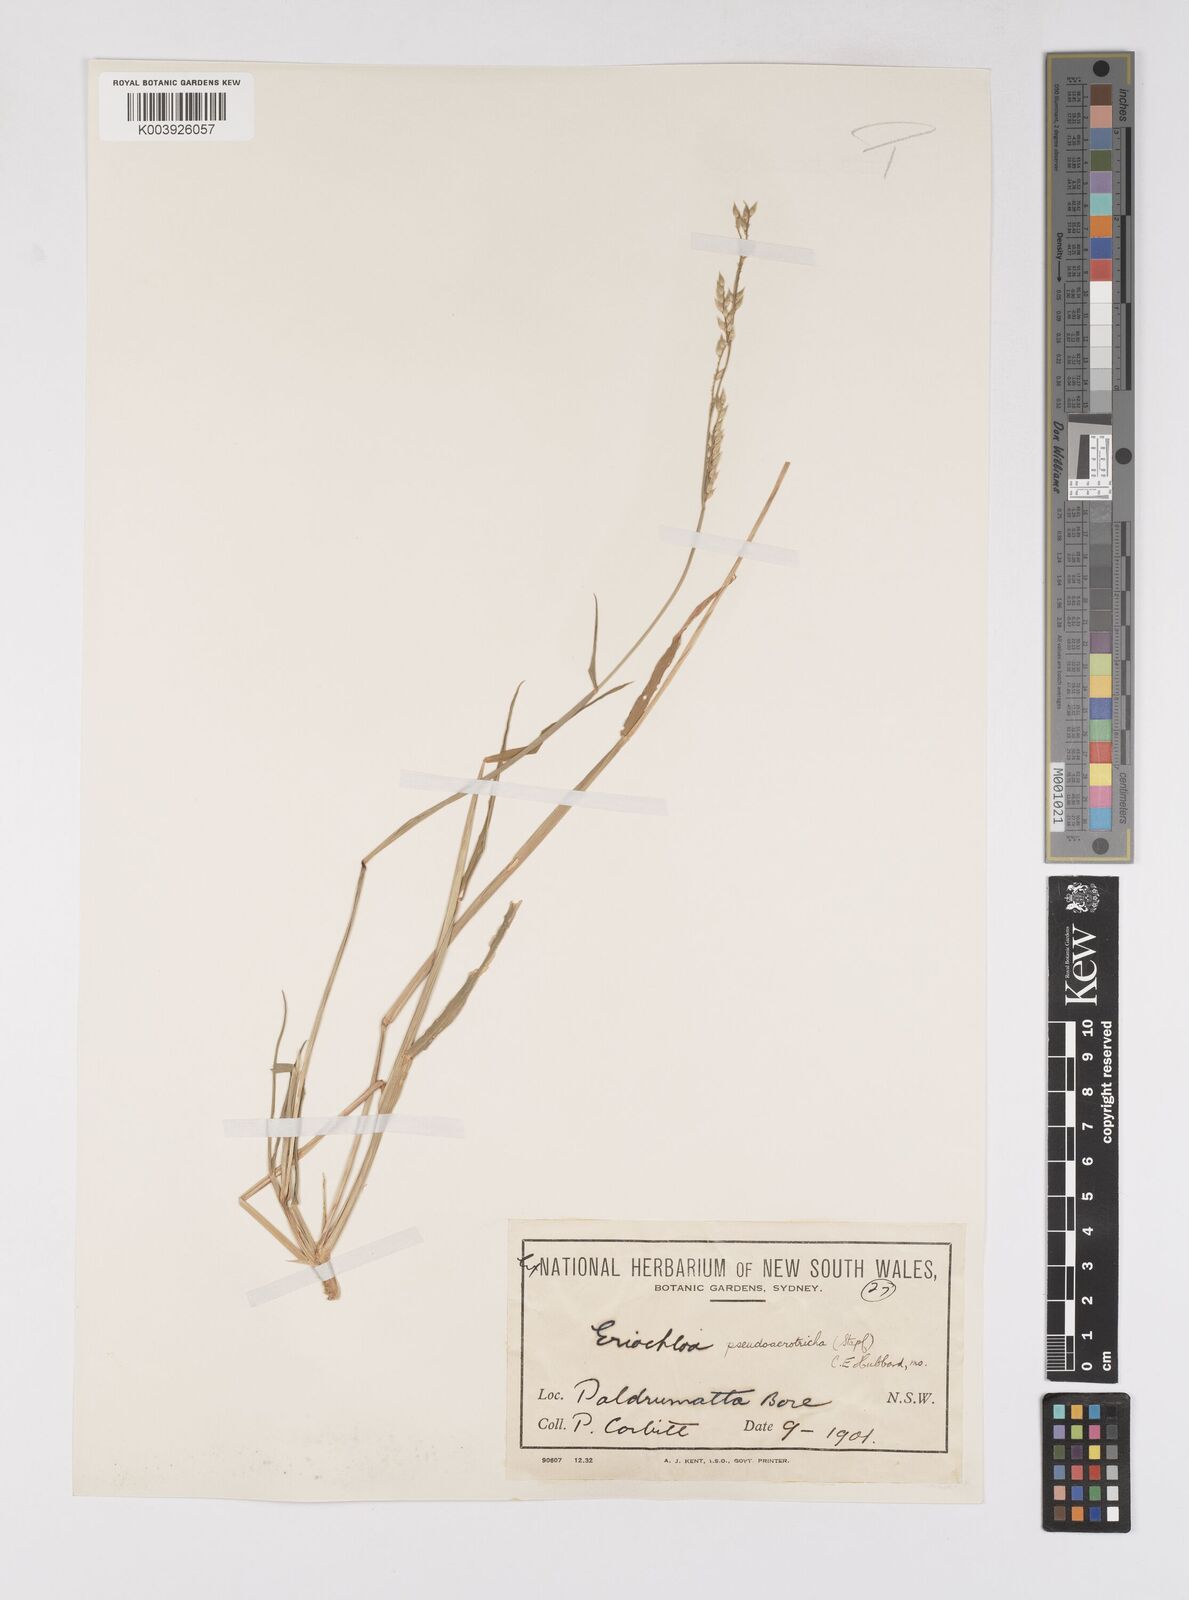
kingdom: Plantae
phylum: Tracheophyta
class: Liliopsida
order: Poales
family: Poaceae
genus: Eriochloa
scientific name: Eriochloa pseudoacrotricha
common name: Perennial cup-grass
